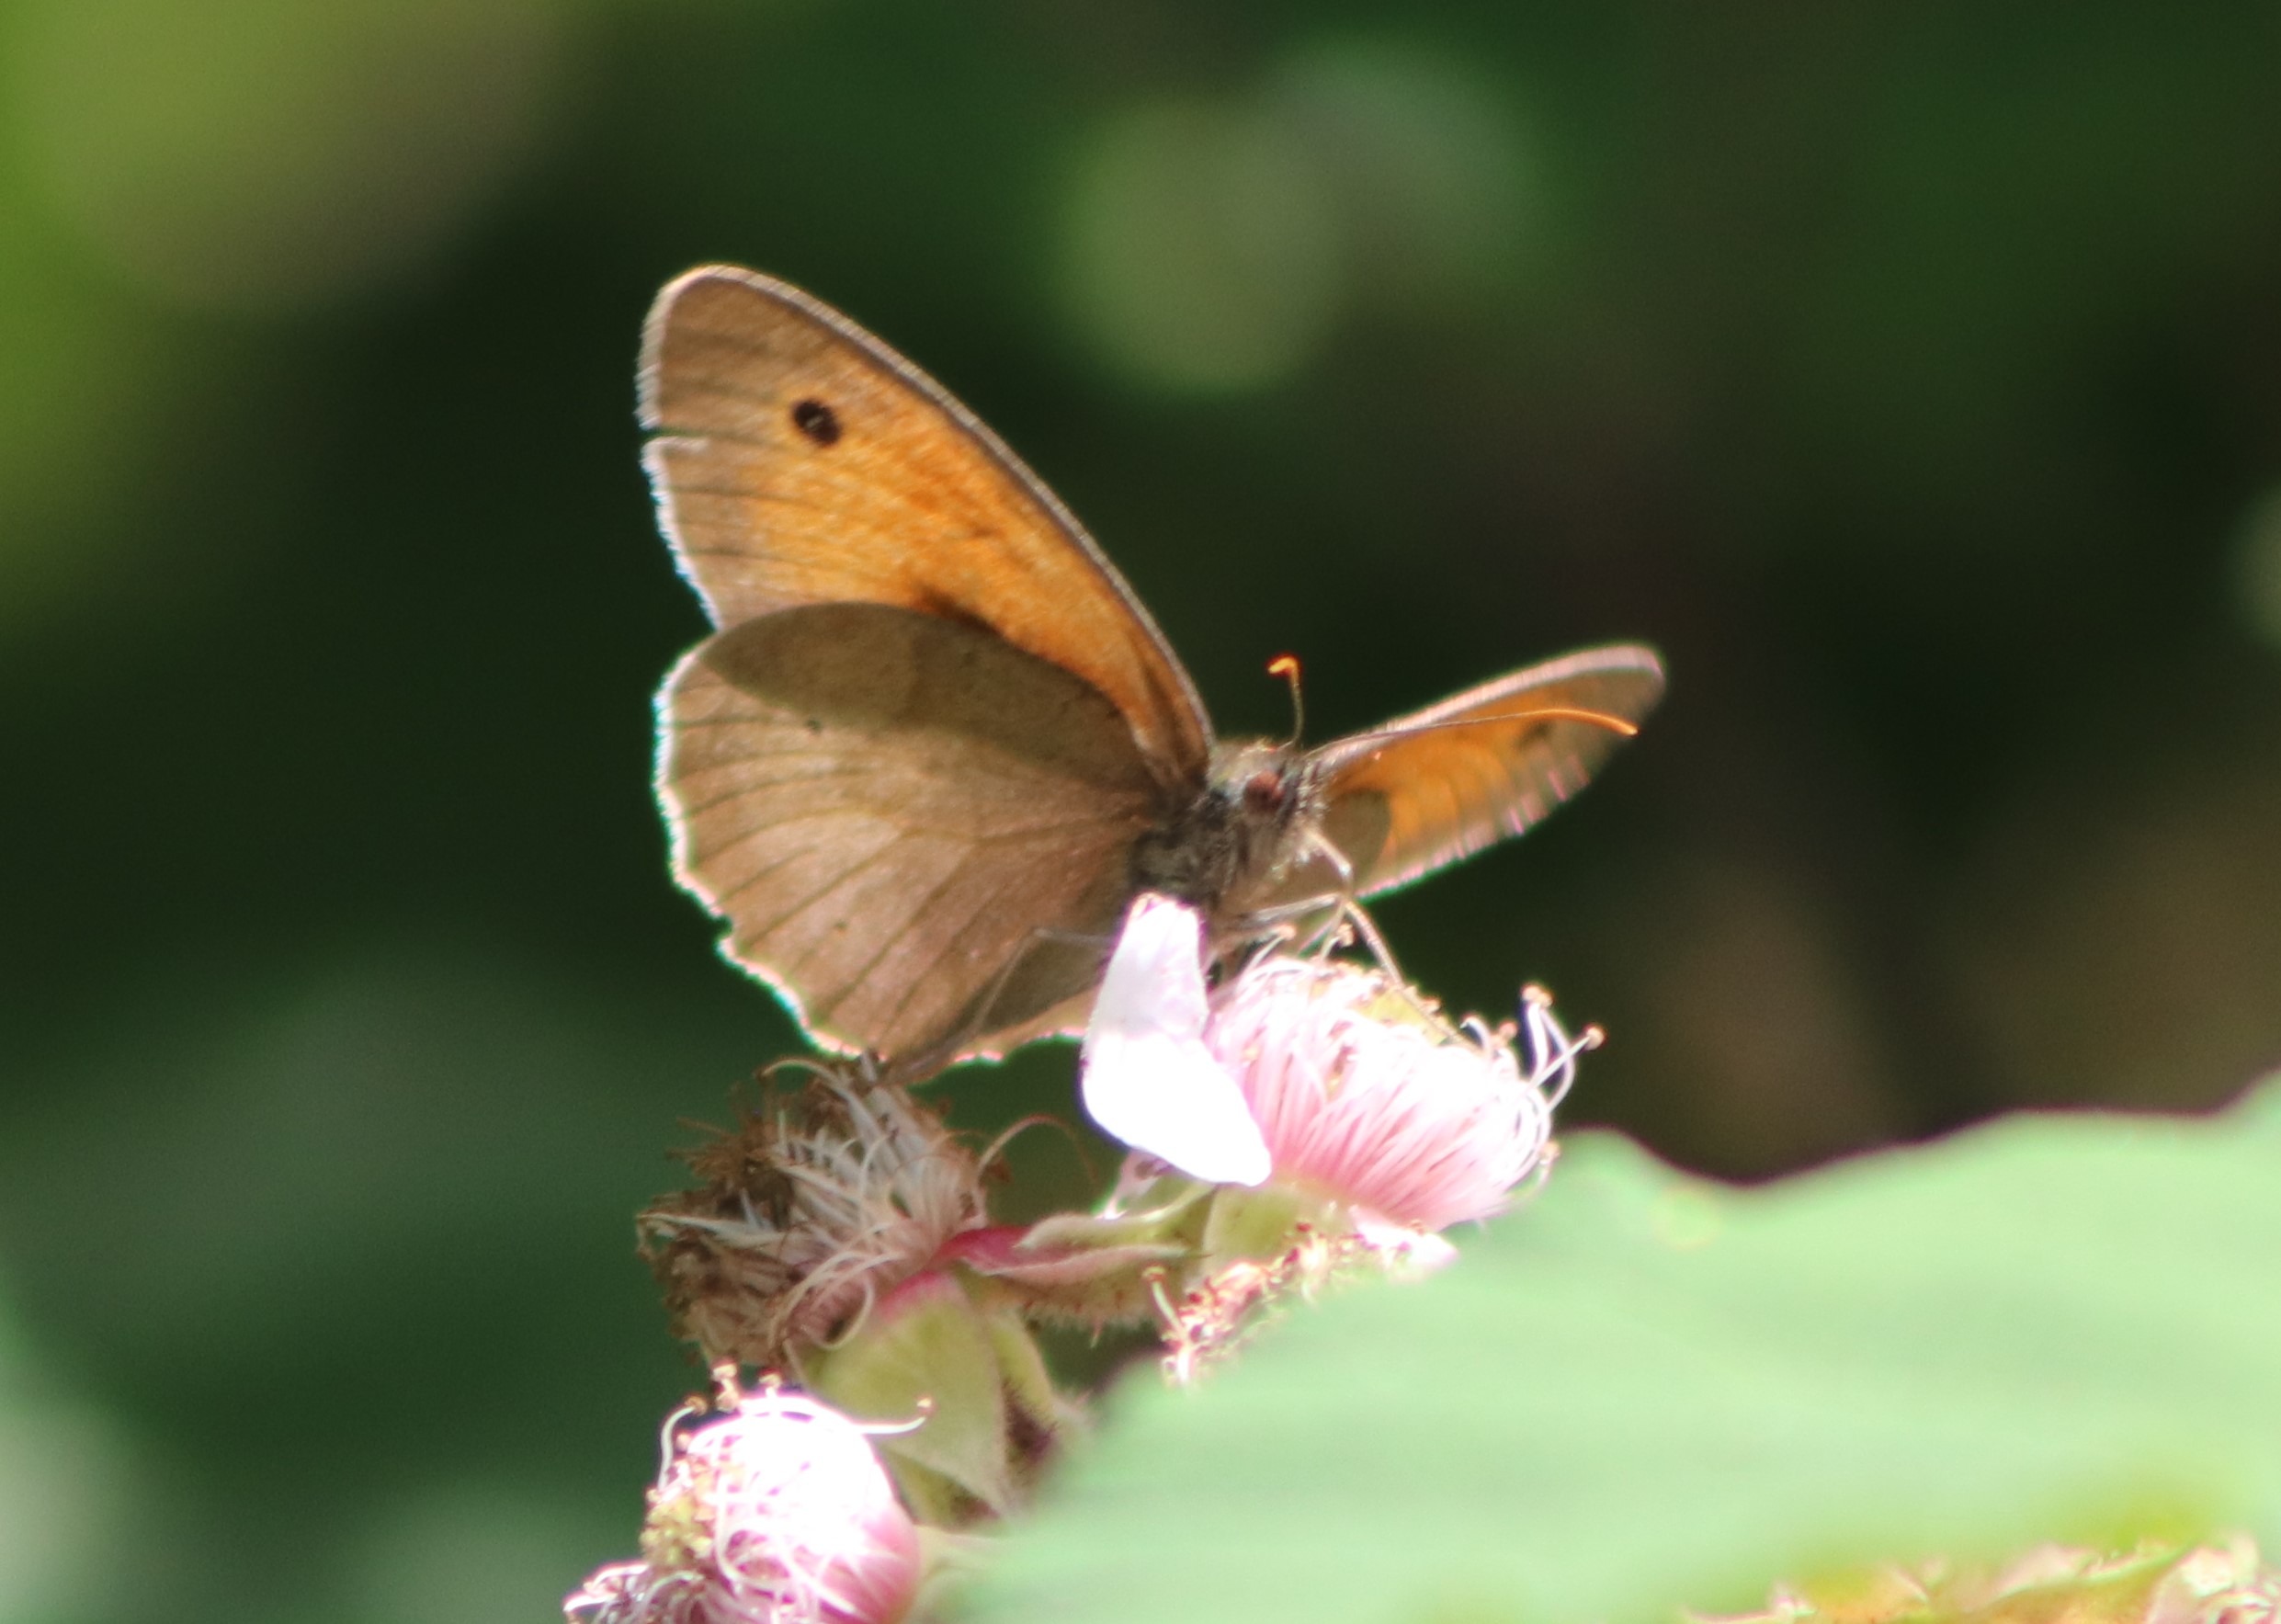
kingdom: Animalia
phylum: Arthropoda
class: Insecta
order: Lepidoptera
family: Nymphalidae
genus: Maniola
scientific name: Maniola jurtina
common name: Græsrandøje
